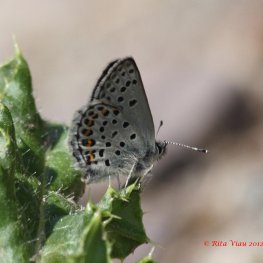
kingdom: Animalia
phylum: Arthropoda
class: Insecta
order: Lepidoptera
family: Lycaenidae
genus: Lycaeides
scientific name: Lycaeides idas
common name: Northern Blue
